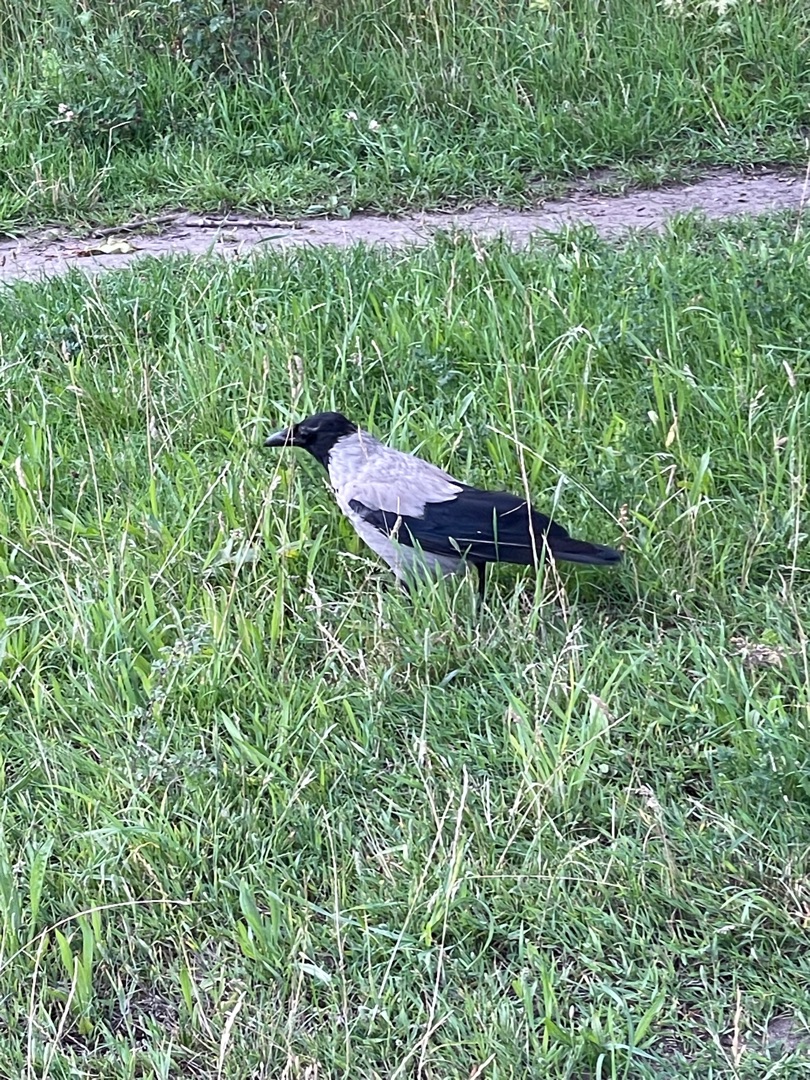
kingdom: Animalia
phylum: Chordata
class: Aves
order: Passeriformes
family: Corvidae
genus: Corvus
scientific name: Corvus cornix
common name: Gråkrage
